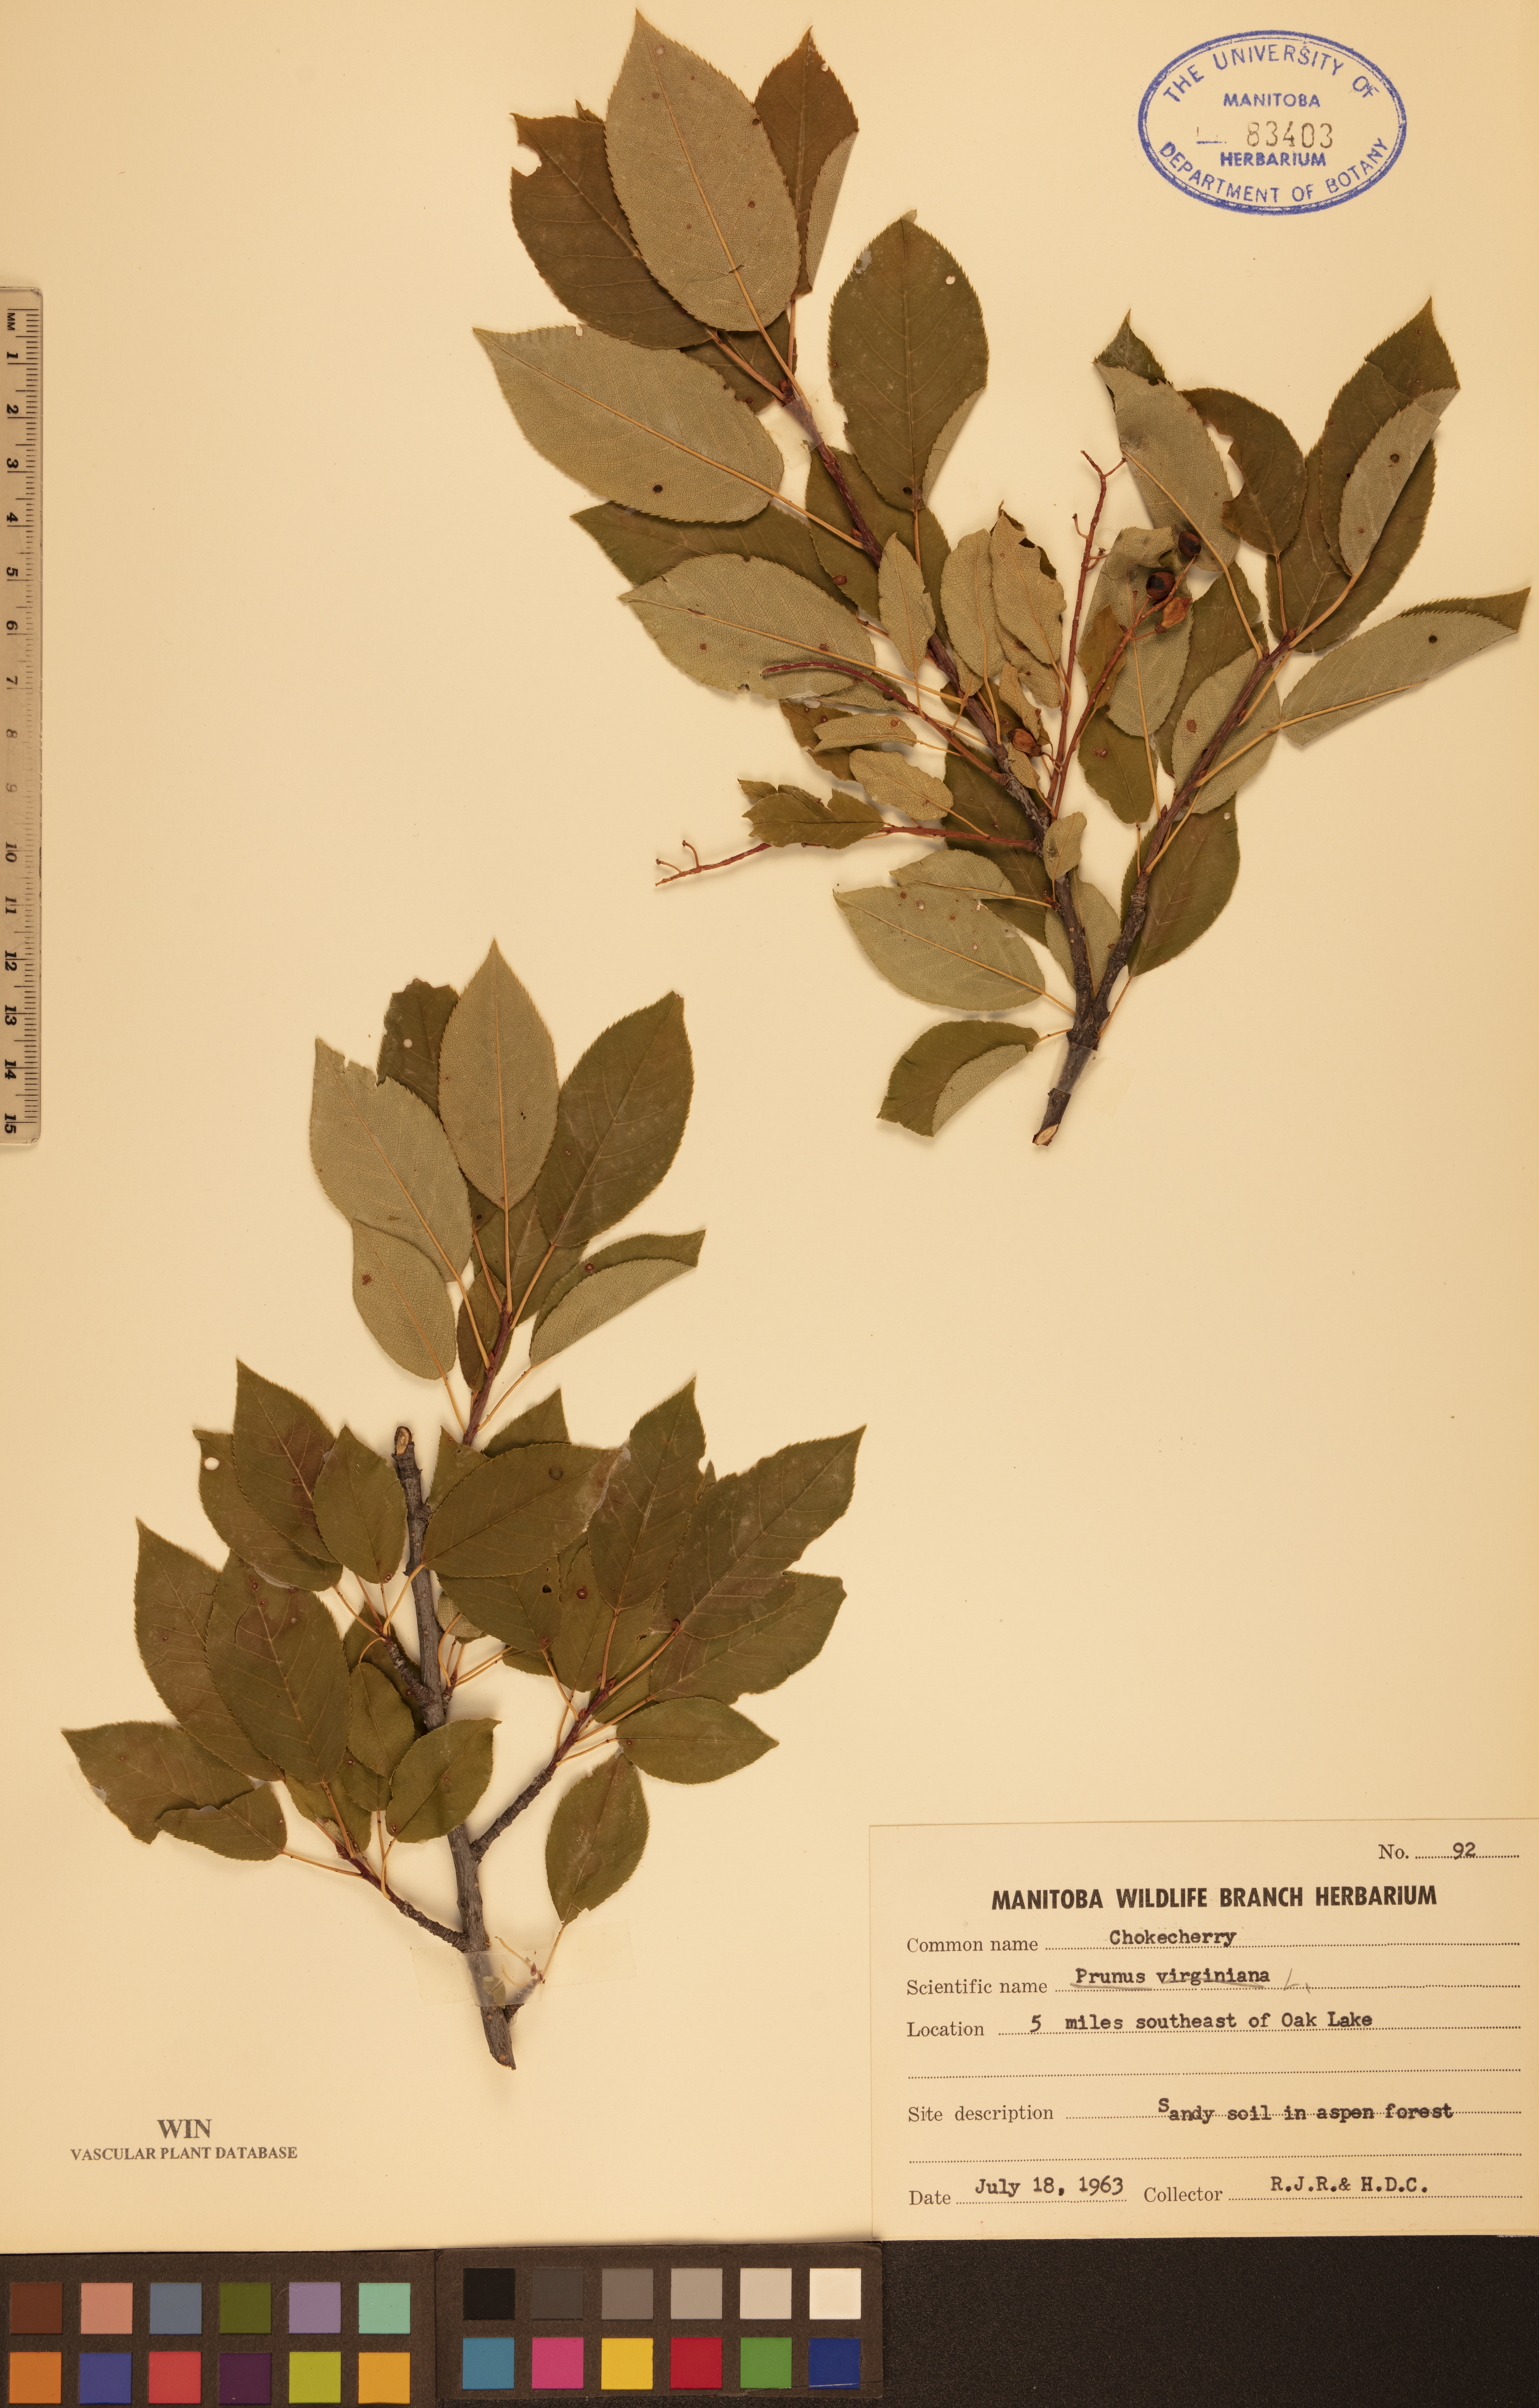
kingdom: Plantae
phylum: Tracheophyta
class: Magnoliopsida
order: Rosales
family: Rosaceae
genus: Prunus
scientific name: Prunus virginiana
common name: Chokecherry
